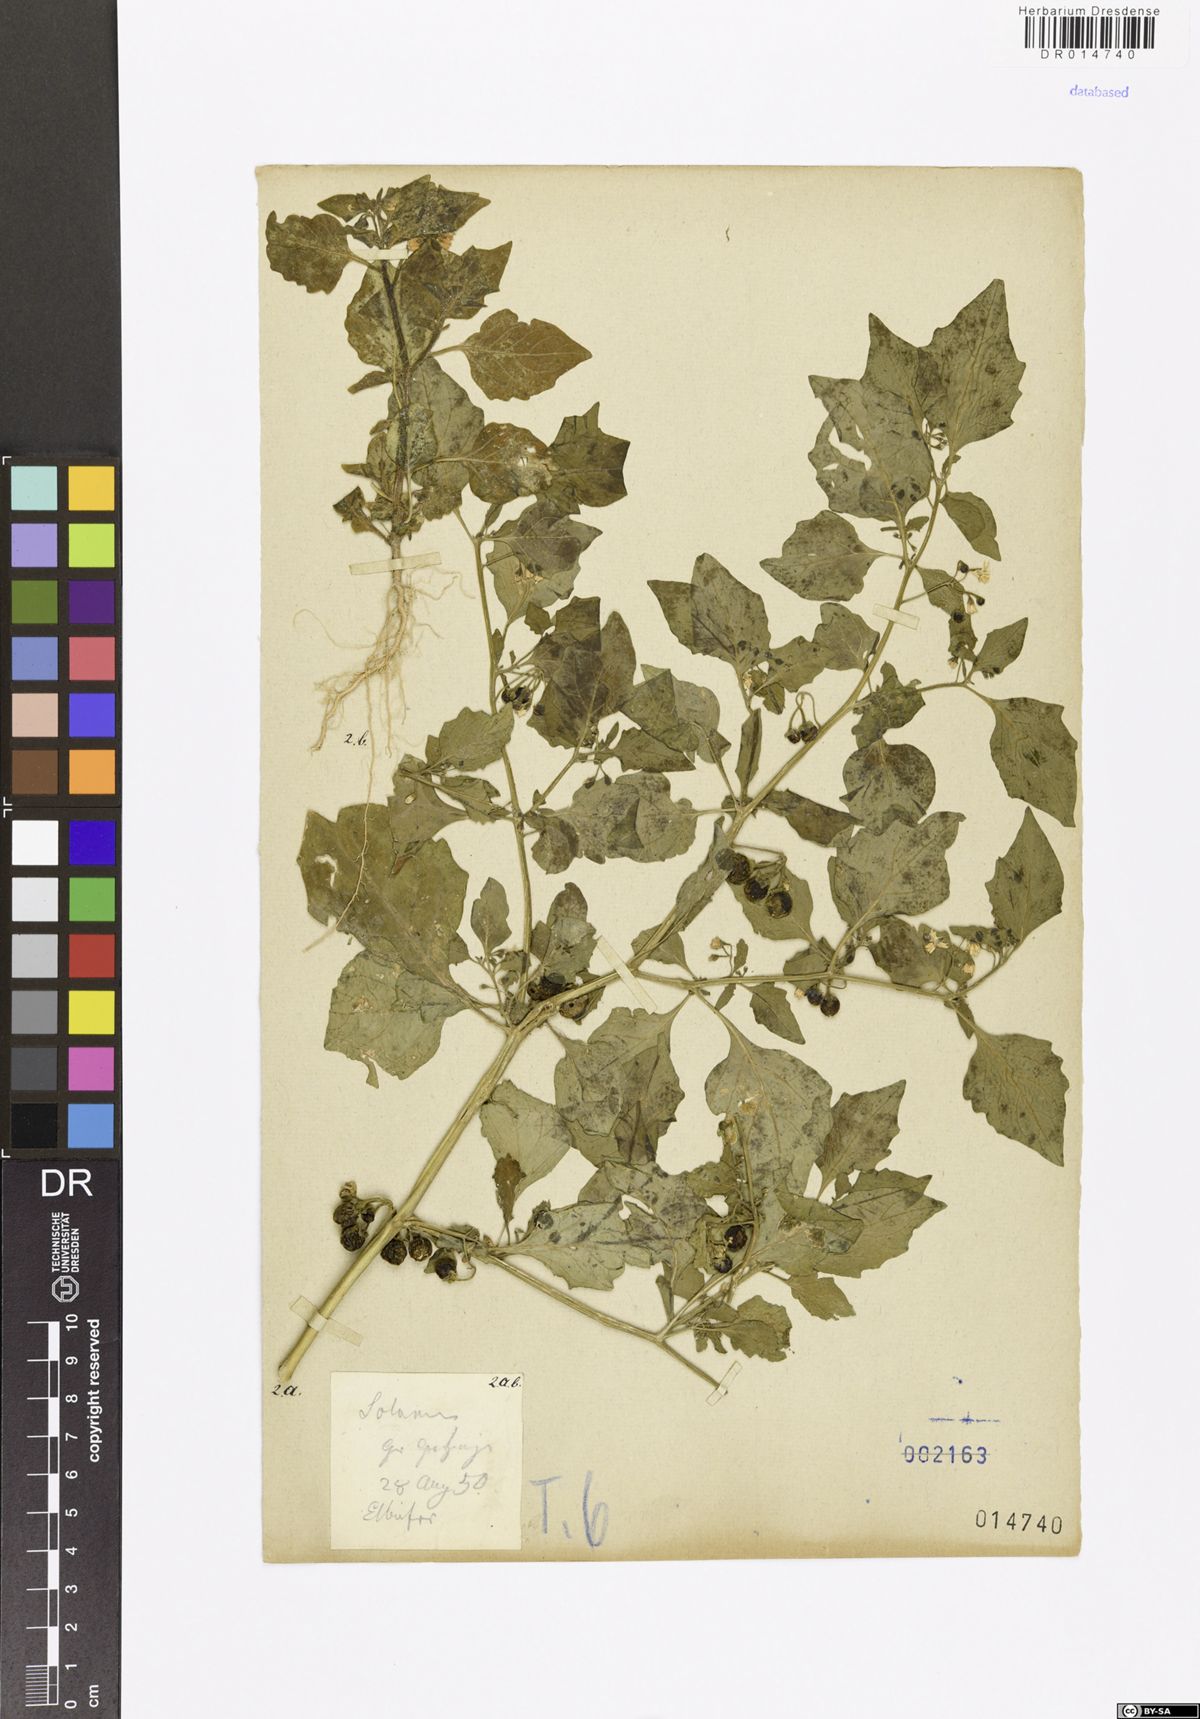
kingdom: Plantae
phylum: Tracheophyta
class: Magnoliopsida
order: Solanales
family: Solanaceae
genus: Solanum
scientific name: Solanum nigrum
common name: Black nightshade
